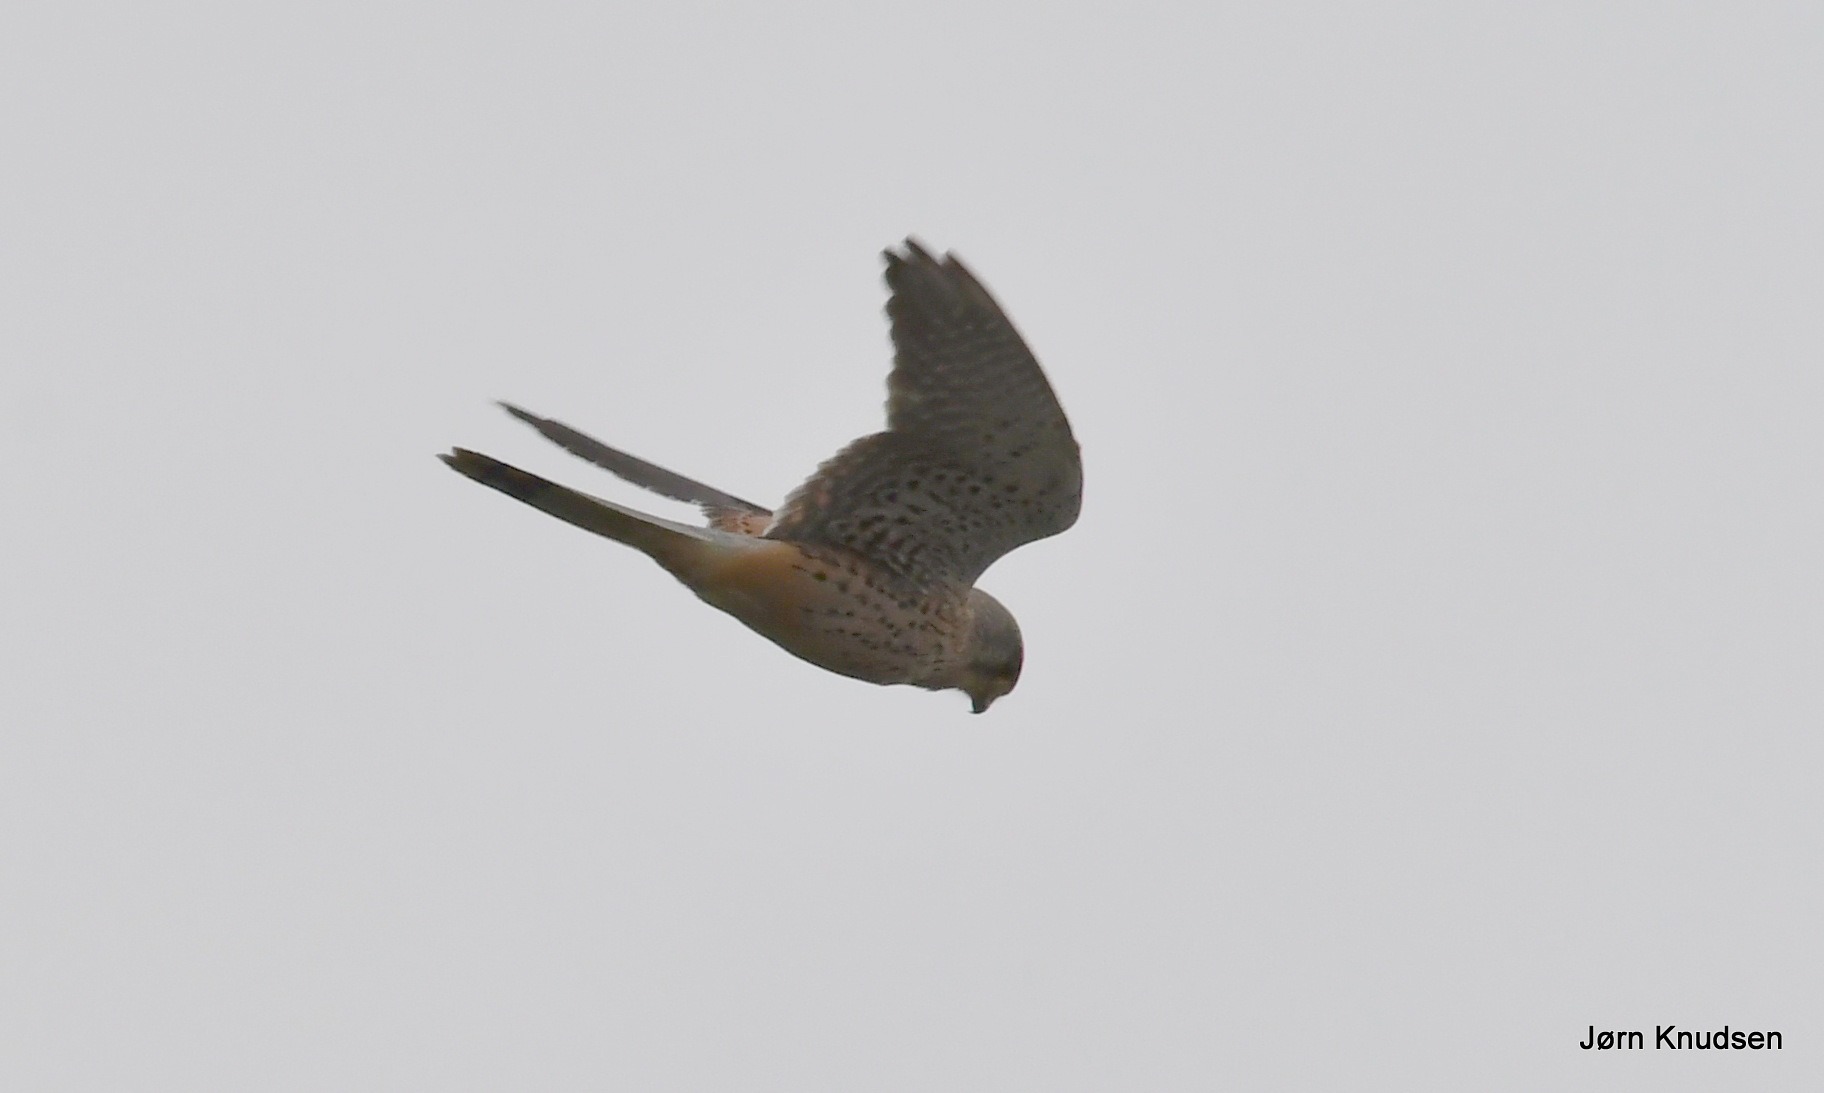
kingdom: Animalia
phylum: Chordata
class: Aves
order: Falconiformes
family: Falconidae
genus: Falco
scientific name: Falco tinnunculus
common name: Tårnfalk
